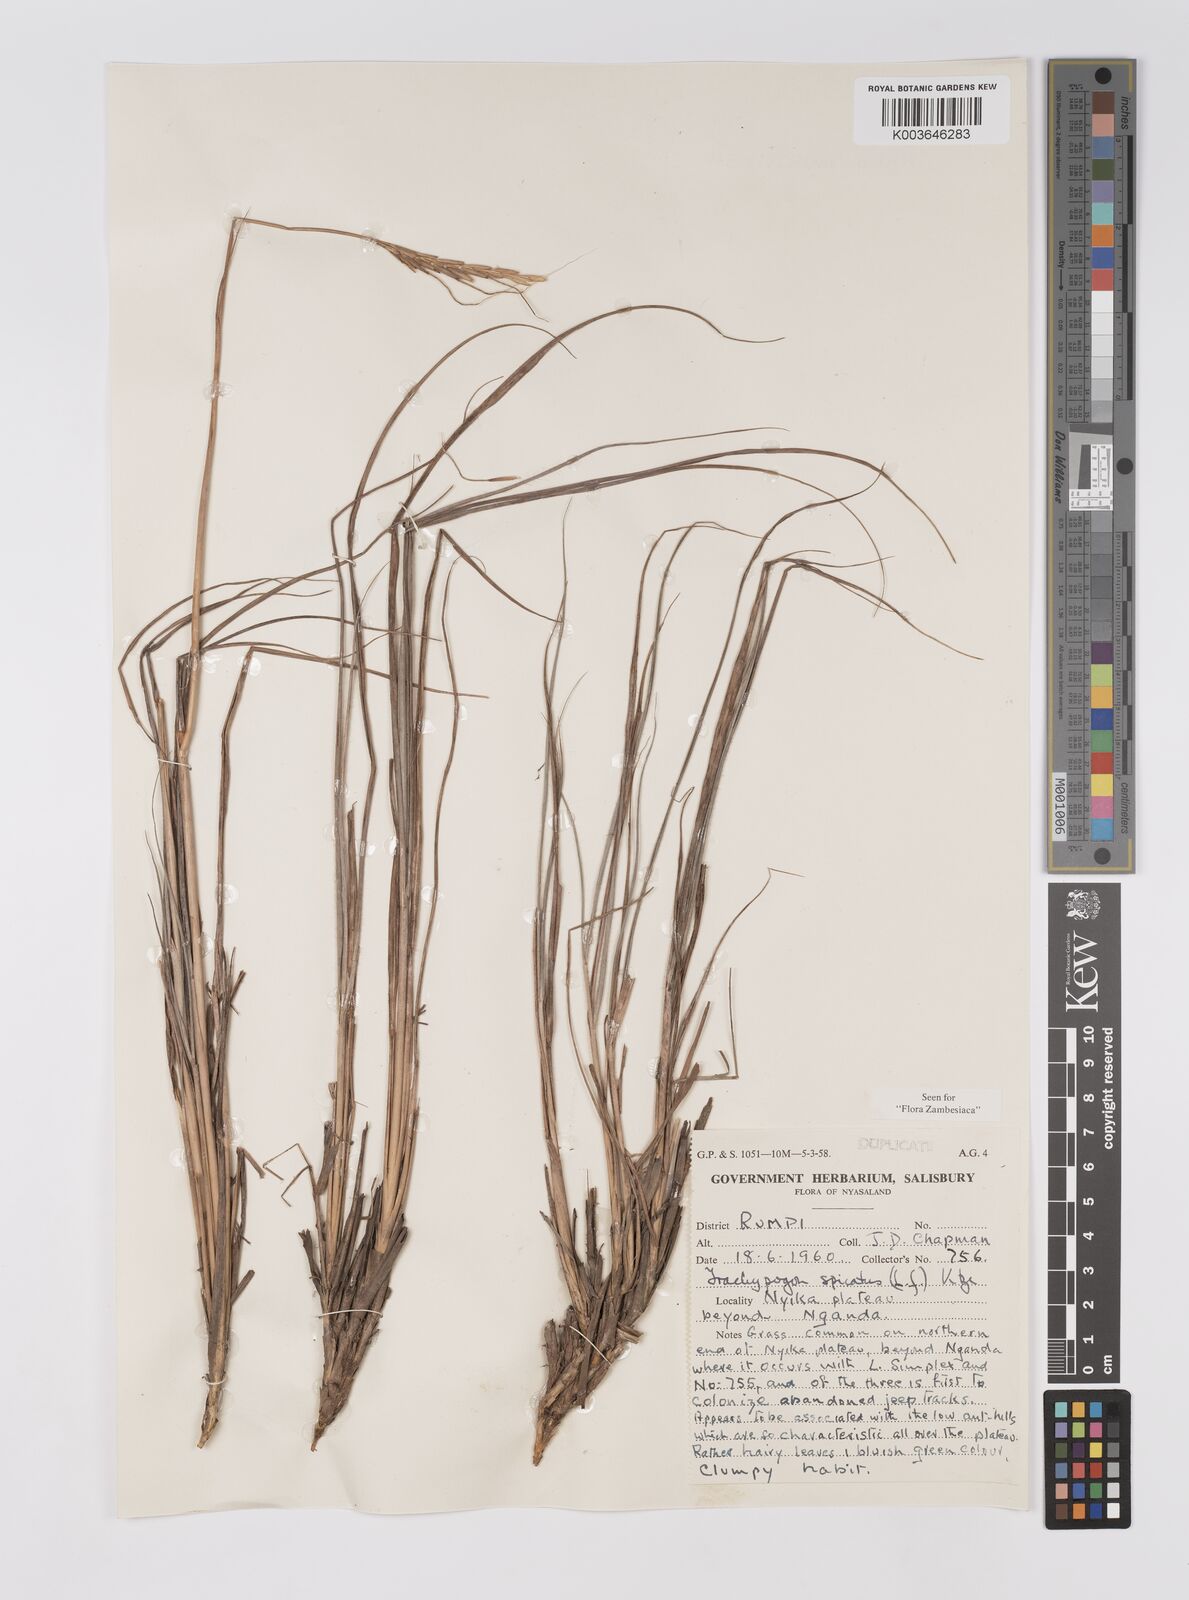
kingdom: Plantae
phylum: Tracheophyta
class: Liliopsida
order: Poales
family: Poaceae
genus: Trachypogon
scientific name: Trachypogon spicatus
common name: Crinkle-awn
